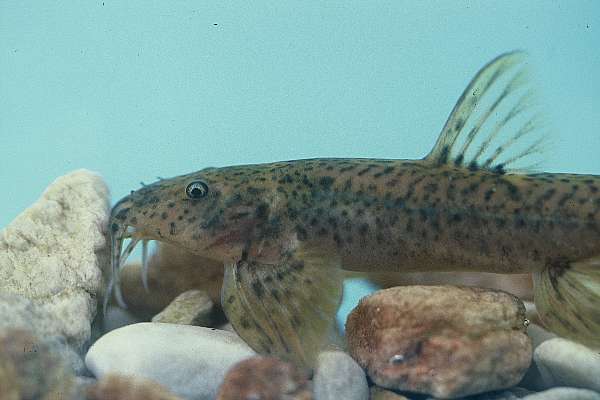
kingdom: Animalia
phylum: Chordata
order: Siluriformes
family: Schilbeidae
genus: Schilbe
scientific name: Schilbe intermedius
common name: Silver catfish
